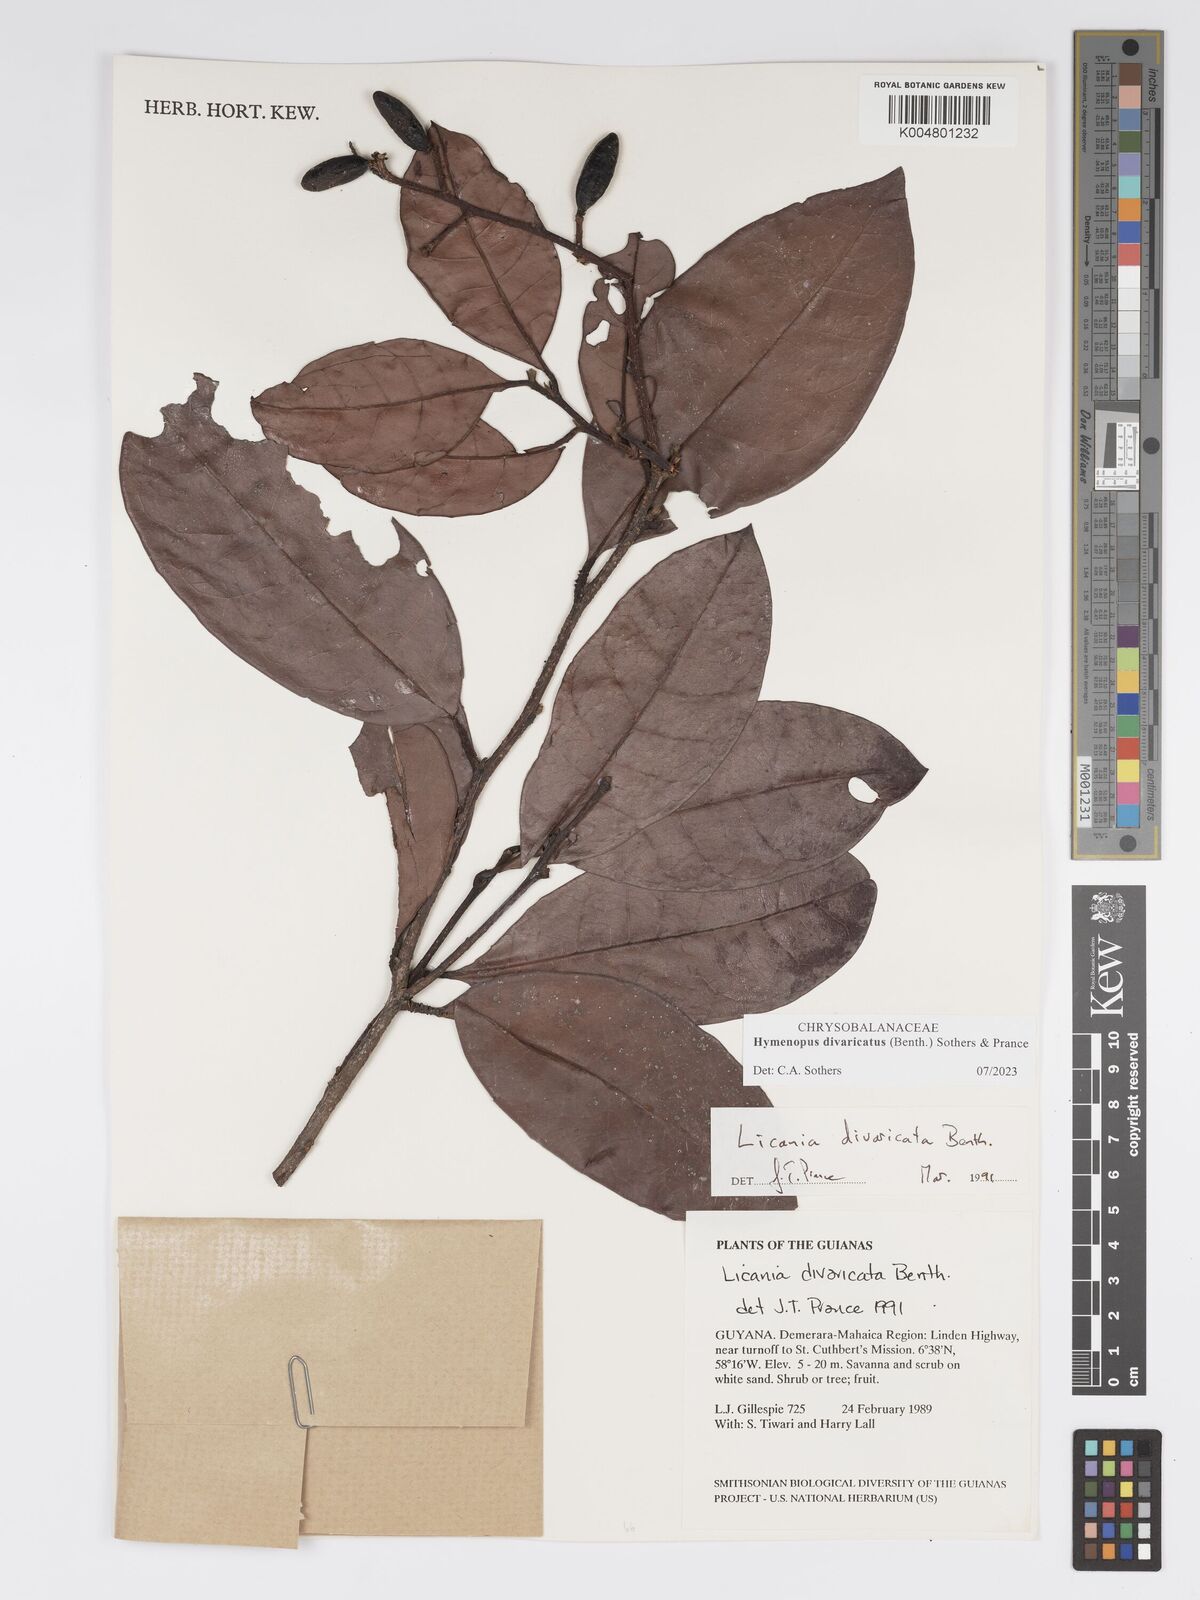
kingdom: Plantae
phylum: Tracheophyta
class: Magnoliopsida
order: Malpighiales
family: Chrysobalanaceae
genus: Hymenopus
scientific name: Hymenopus divaricatus
